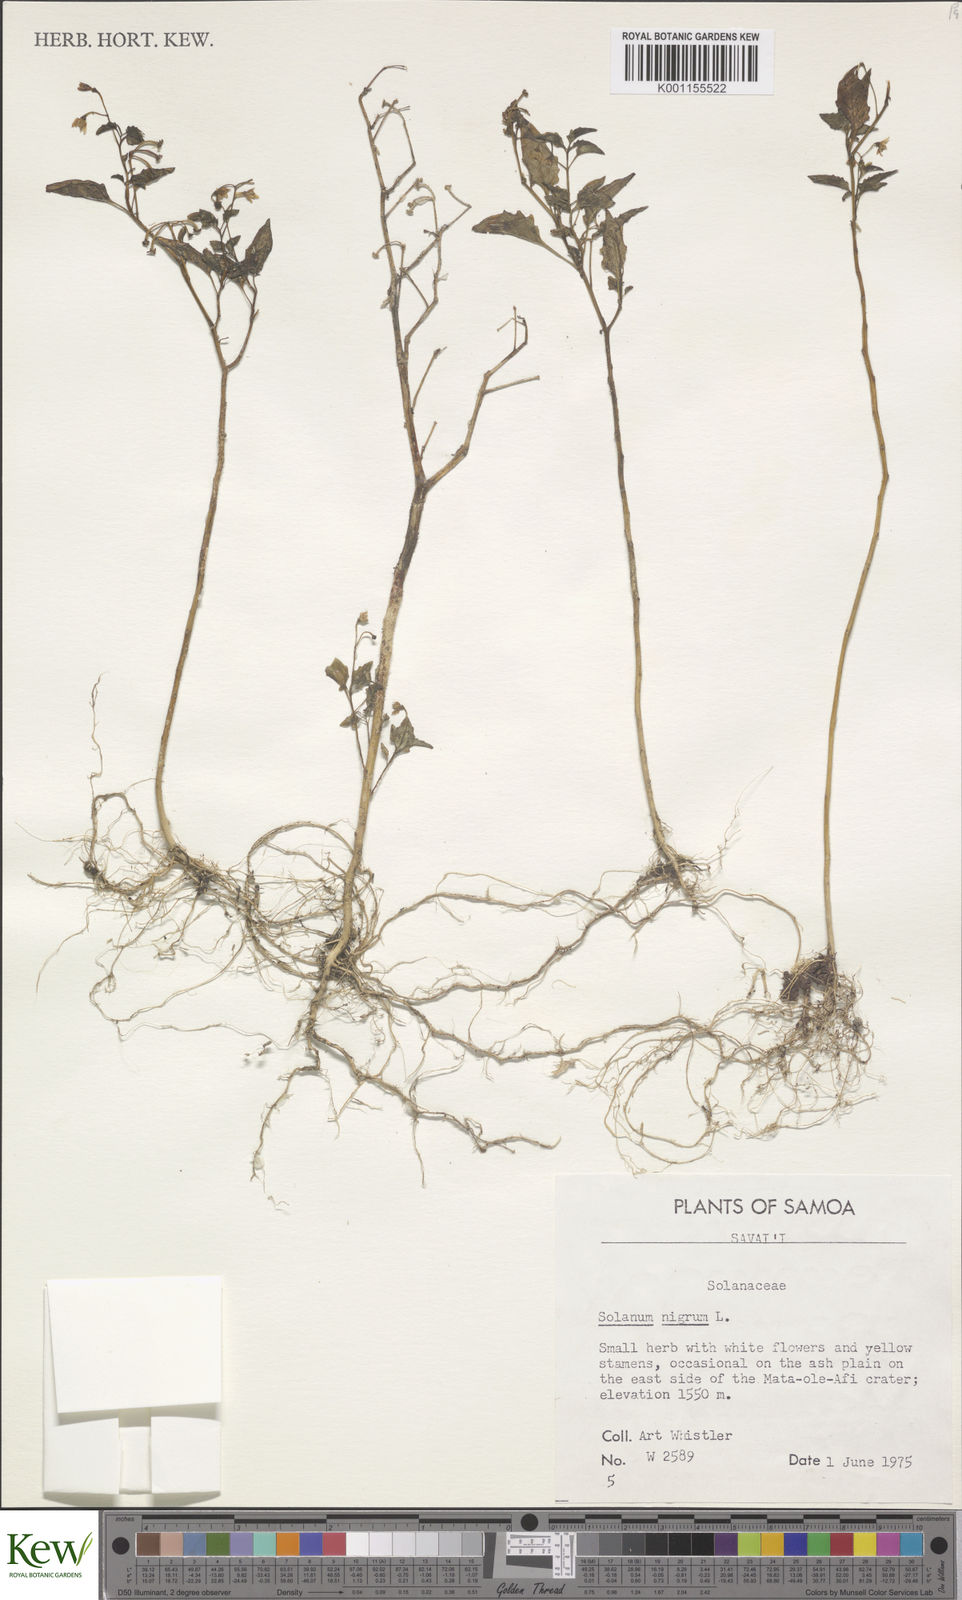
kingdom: Plantae
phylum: Tracheophyta
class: Magnoliopsida
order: Solanales
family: Solanaceae
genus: Solanum
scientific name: Solanum americanum
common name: American black nightshade
